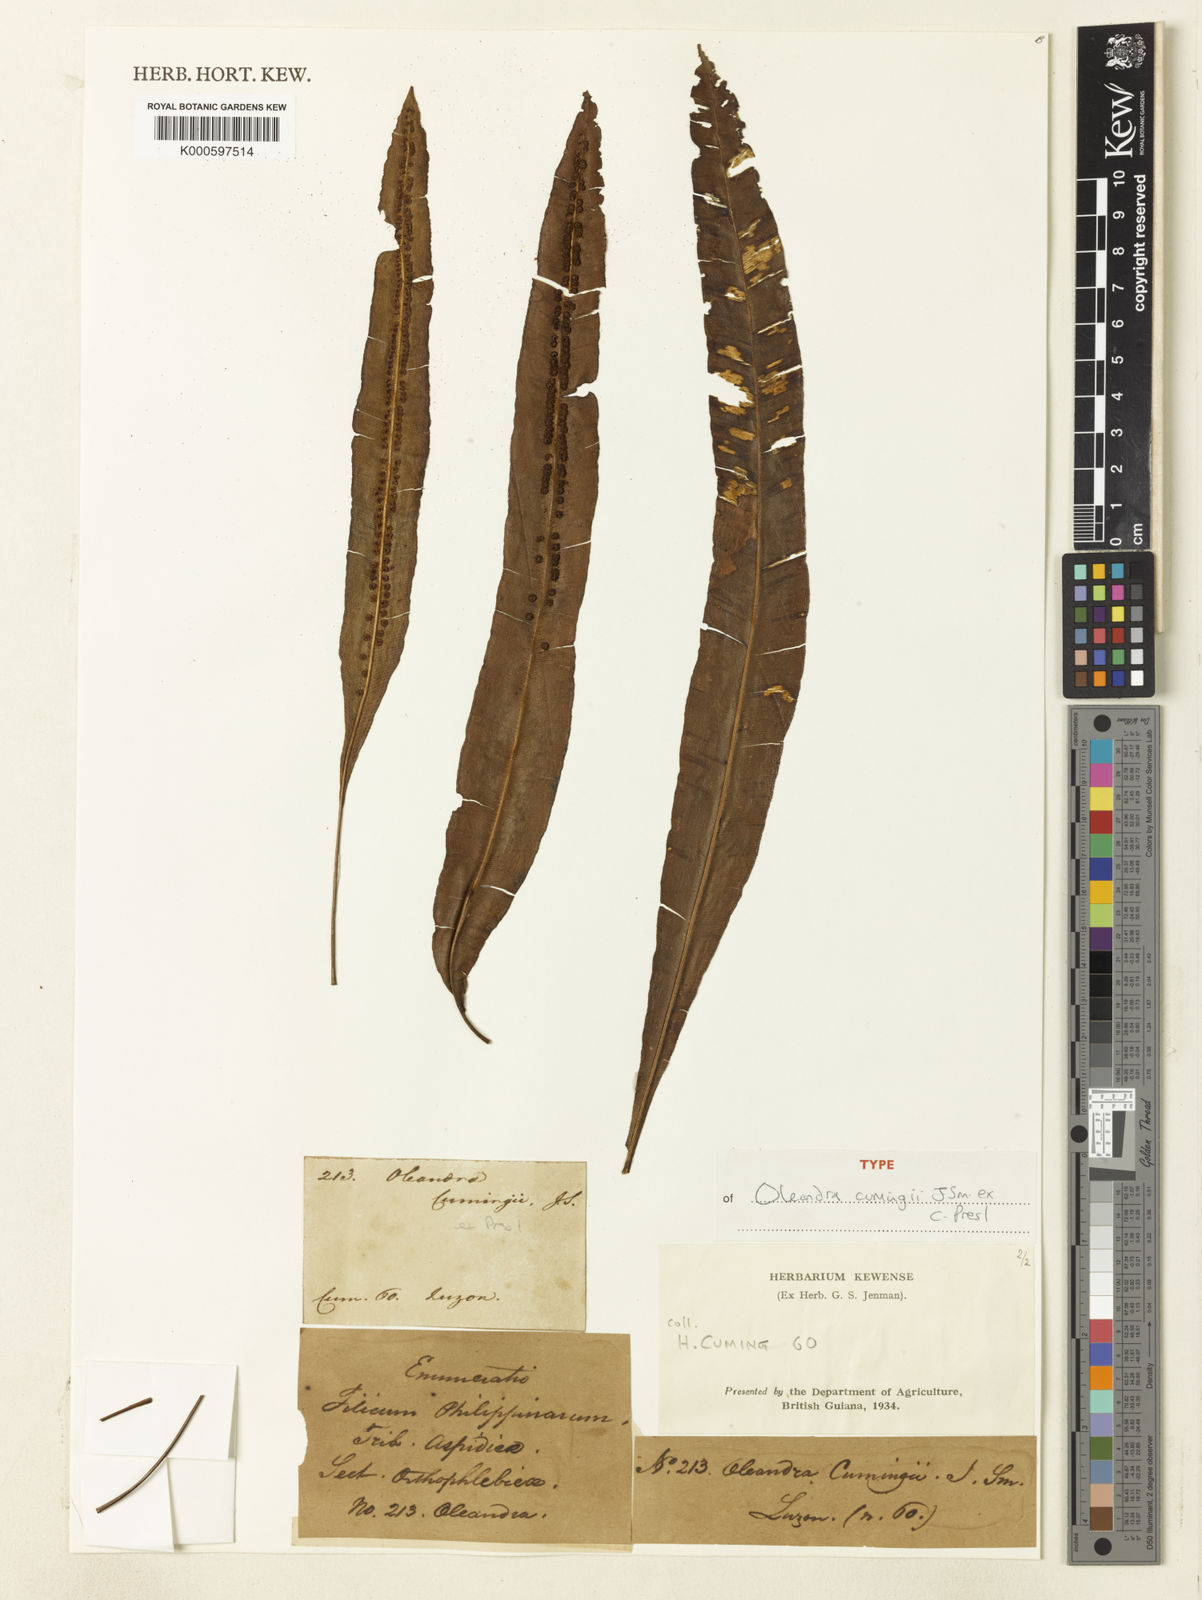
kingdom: Plantae
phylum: Tracheophyta
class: Polypodiopsida
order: Polypodiales
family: Oleandraceae
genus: Oleandra
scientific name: Oleandra undulata
